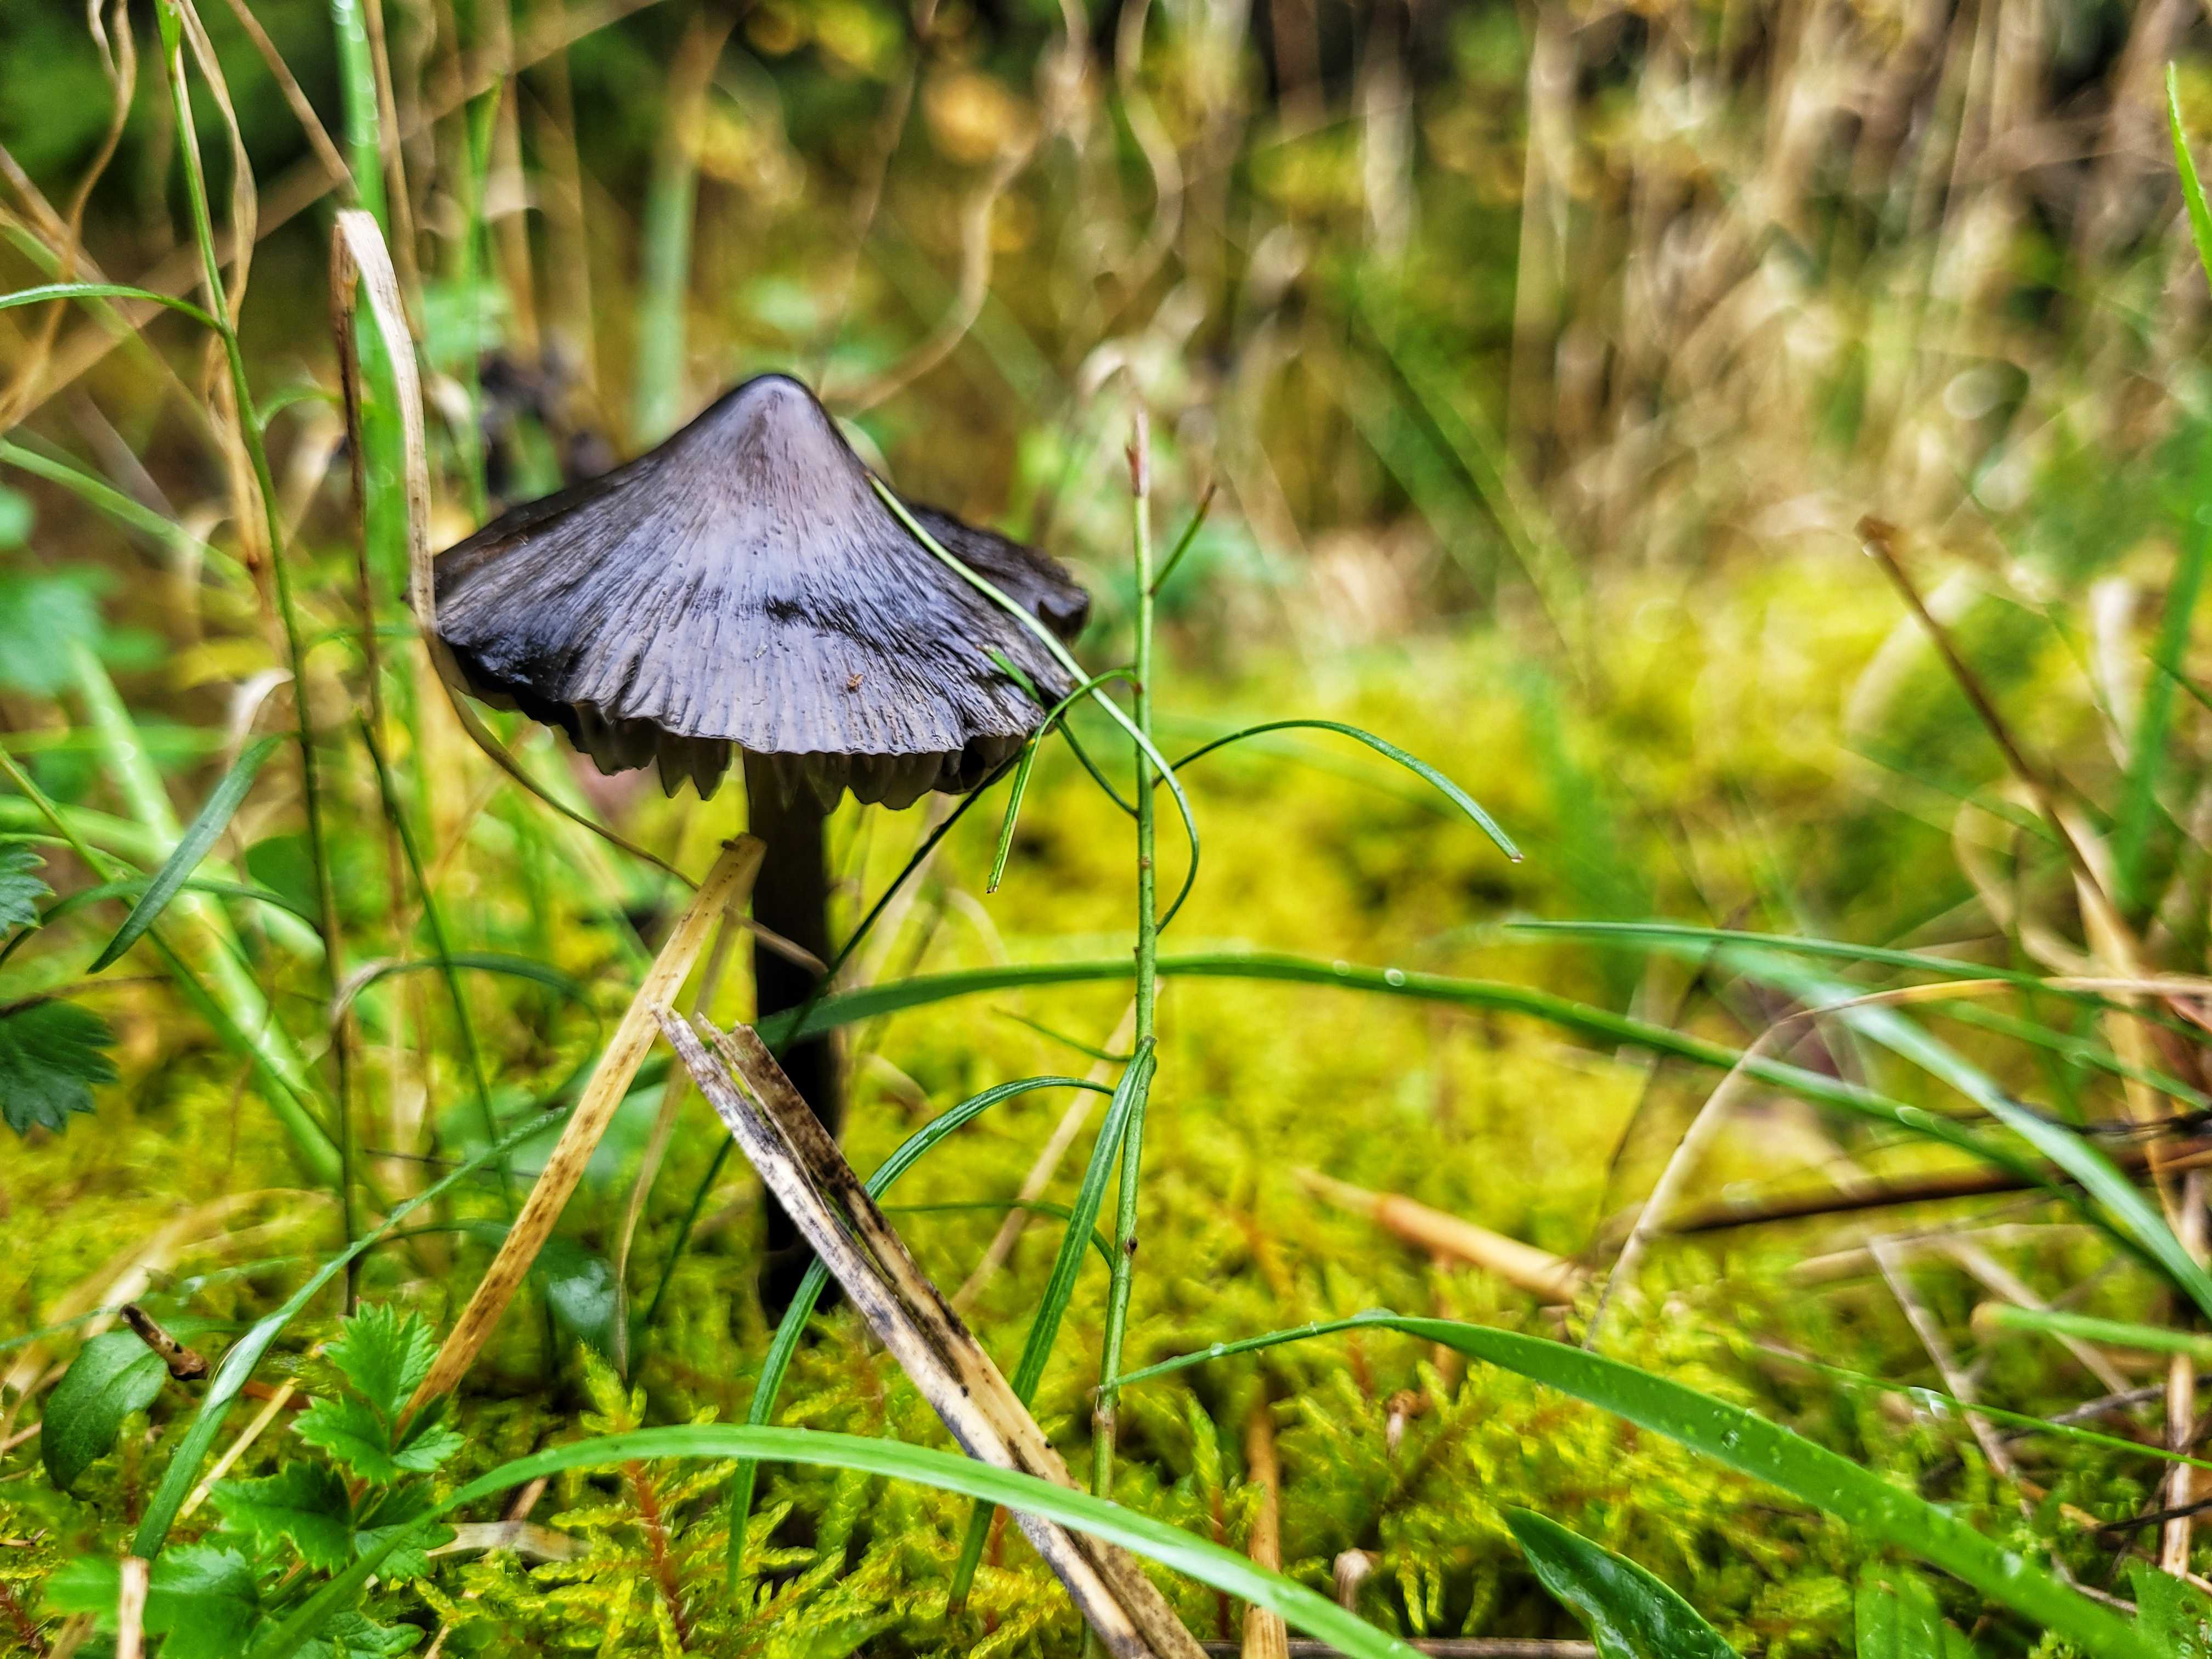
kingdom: Fungi
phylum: Basidiomycota
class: Agaricomycetes
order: Agaricales
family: Hygrophoraceae
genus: Hygrocybe
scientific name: Hygrocybe conica
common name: kegle-vokshat
